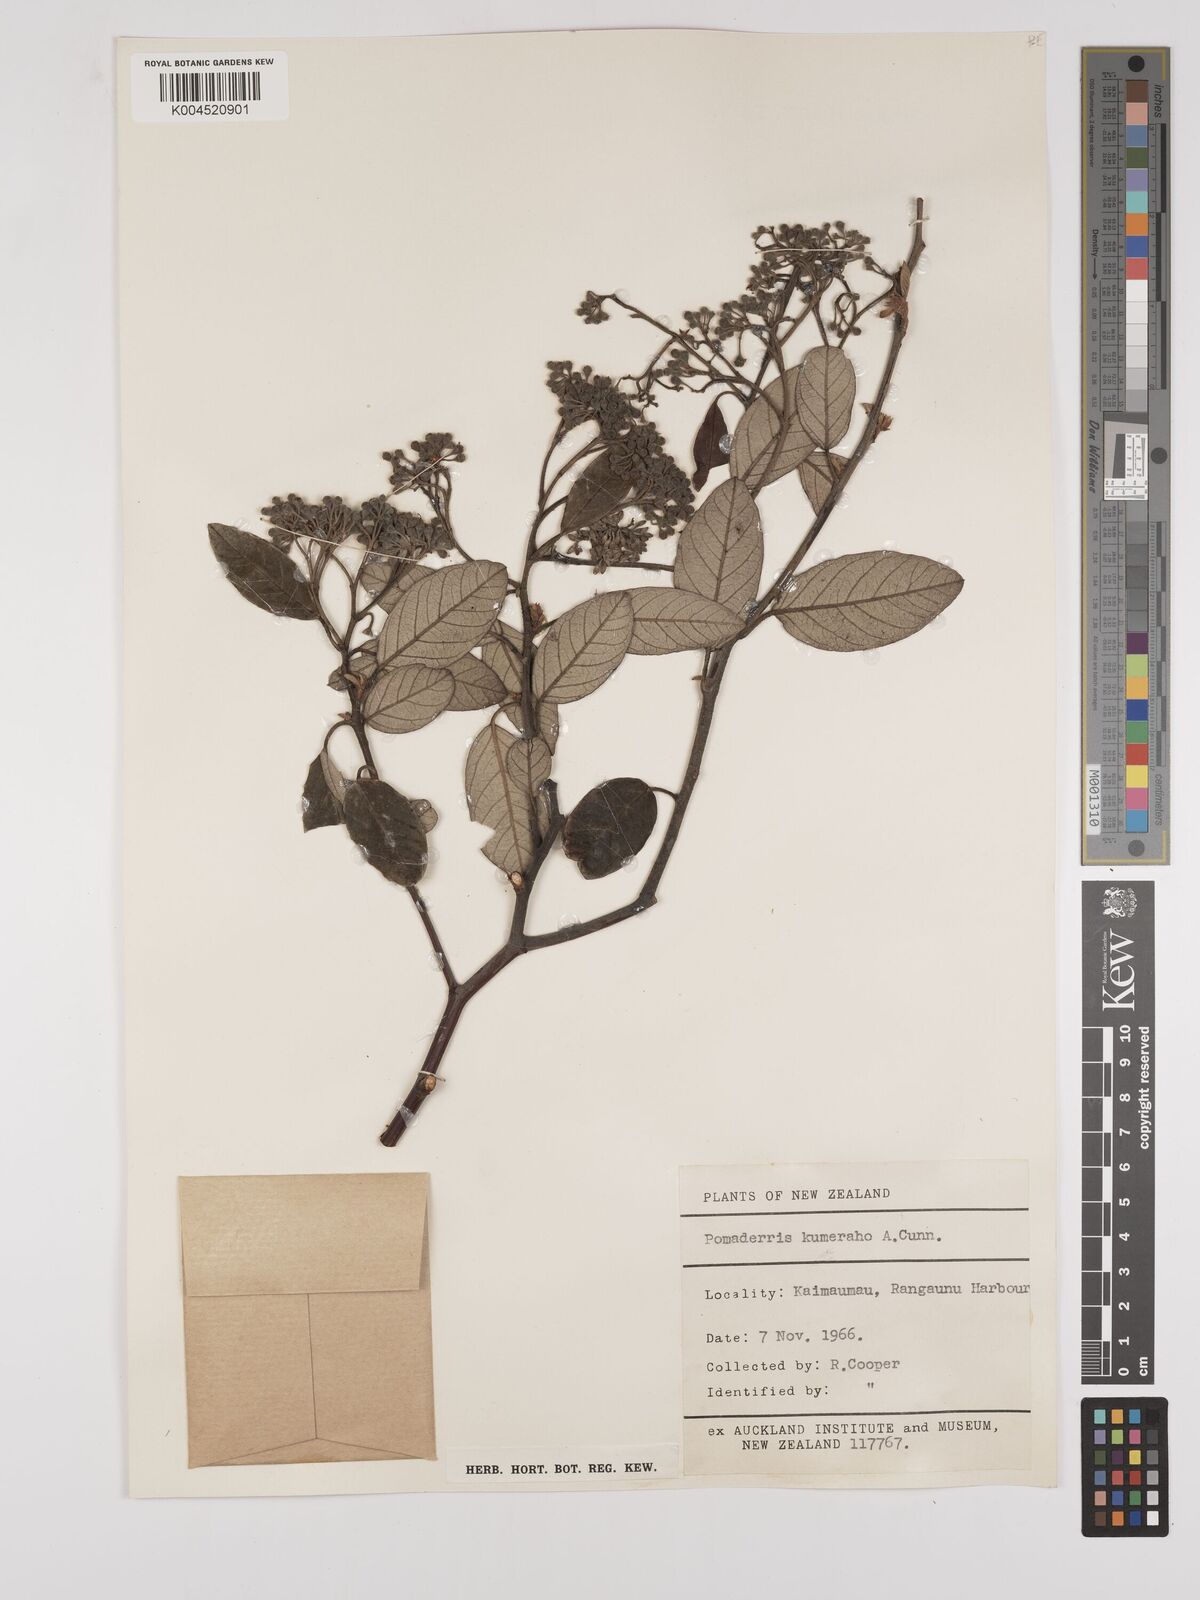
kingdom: Plantae
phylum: Tracheophyta
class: Magnoliopsida
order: Rosales
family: Rhamnaceae
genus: Pomaderris
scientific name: Pomaderris kumeraho
